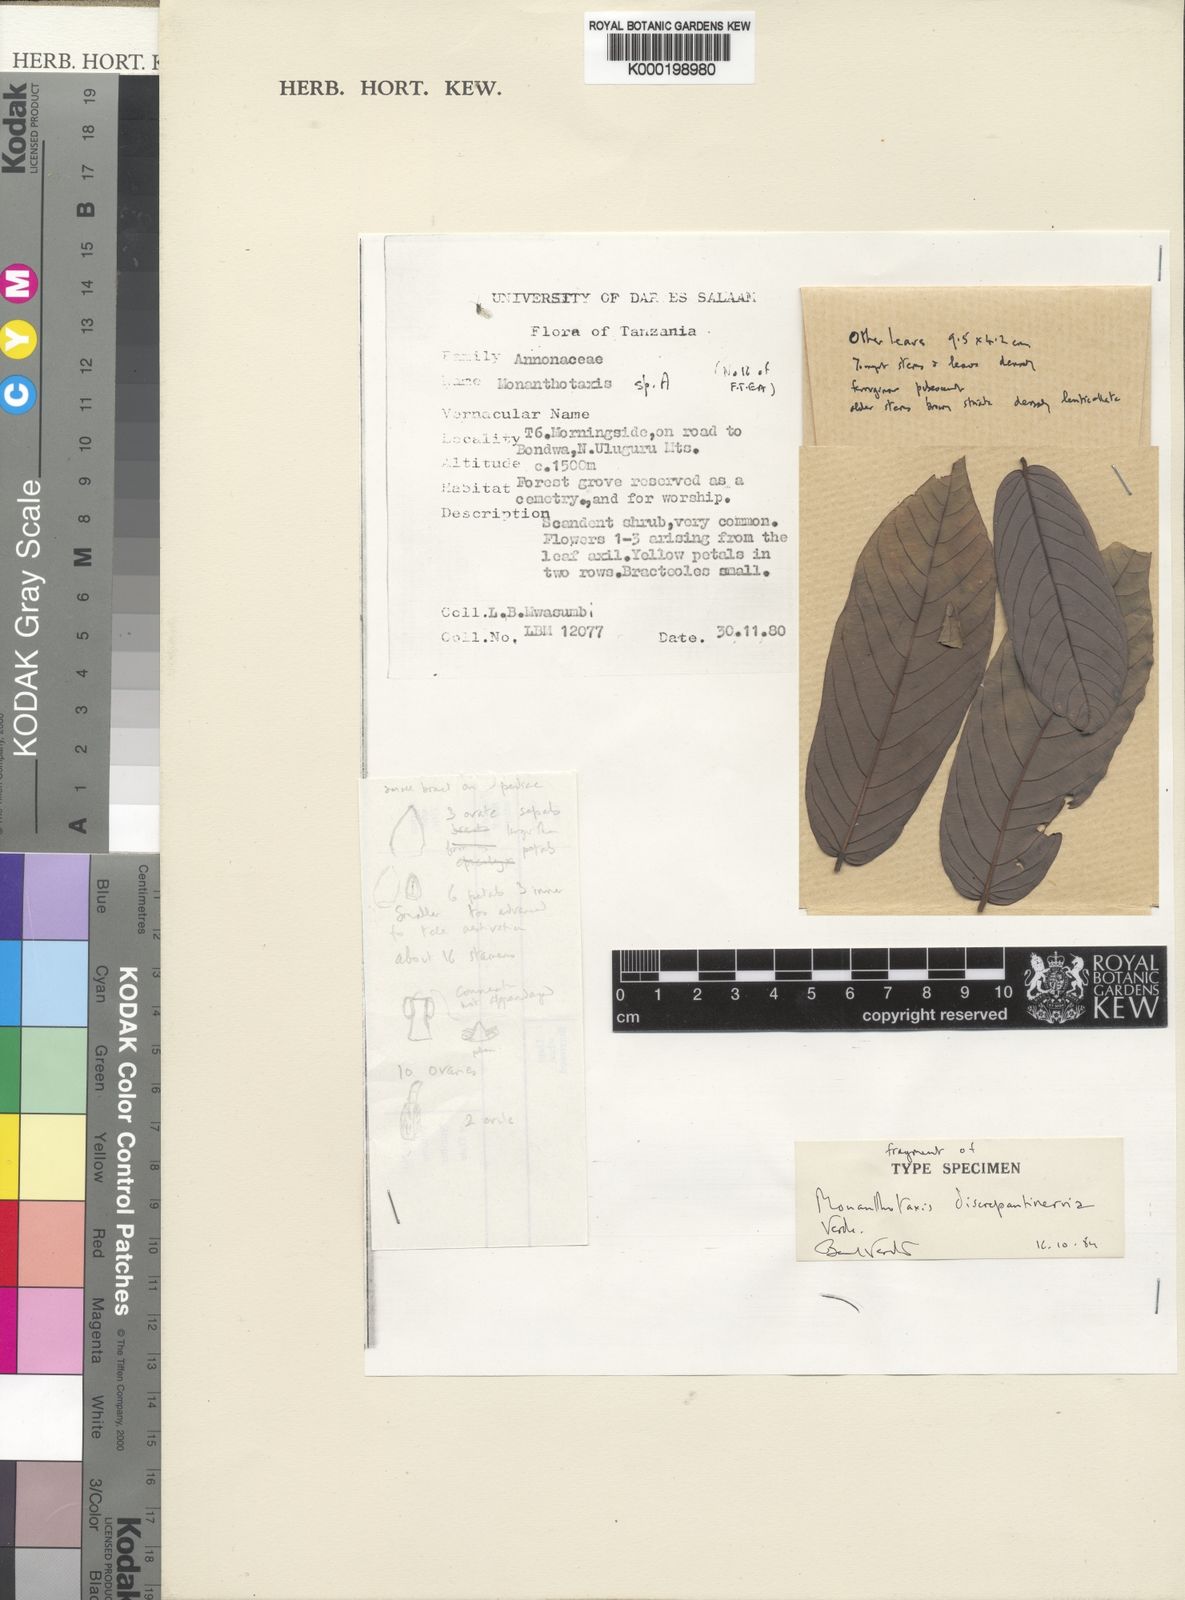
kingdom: Plantae
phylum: Tracheophyta
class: Magnoliopsida
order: Magnoliales
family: Annonaceae
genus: Monanthotaxis
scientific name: Monanthotaxis discrepantinervia
